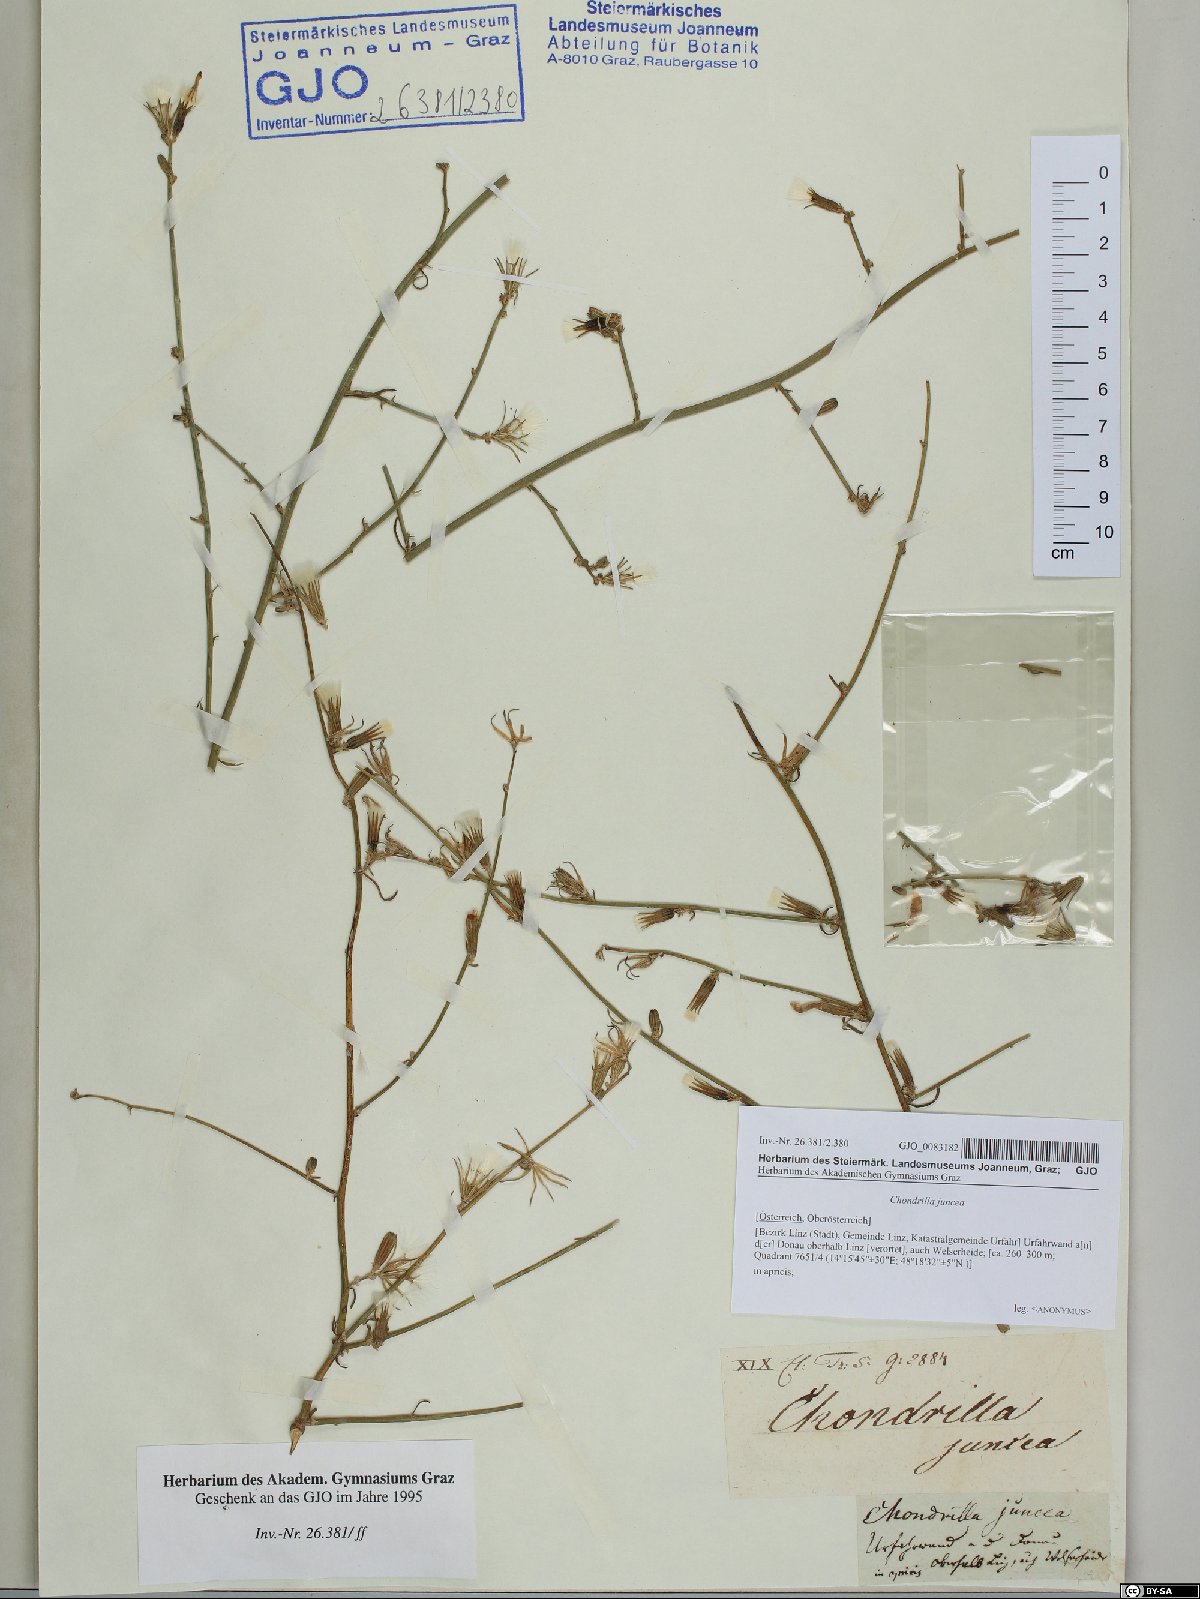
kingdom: Plantae
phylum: Tracheophyta
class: Magnoliopsida
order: Asterales
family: Asteraceae
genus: Chondrilla
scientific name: Chondrilla juncea
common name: Skeleton weed
